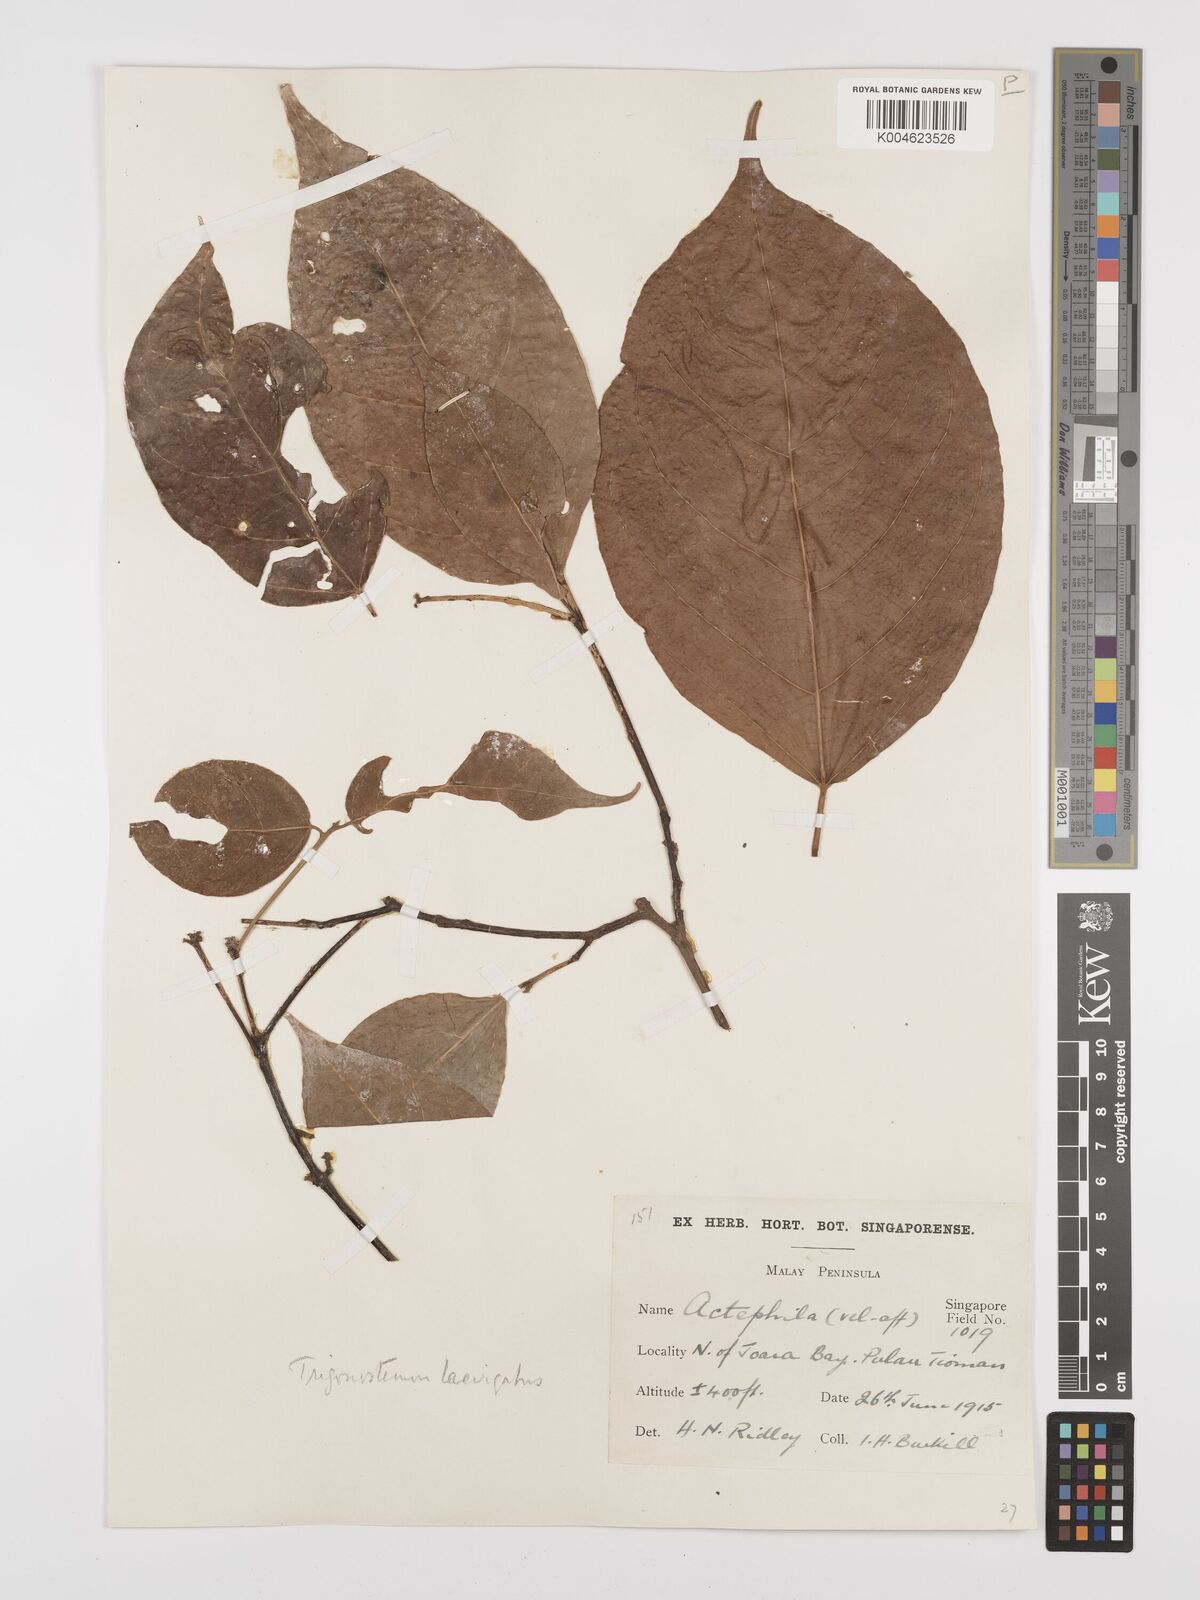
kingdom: Plantae
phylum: Tracheophyta
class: Magnoliopsida
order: Malpighiales
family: Euphorbiaceae
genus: Trigonostemon
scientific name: Trigonostemon laevigatus
